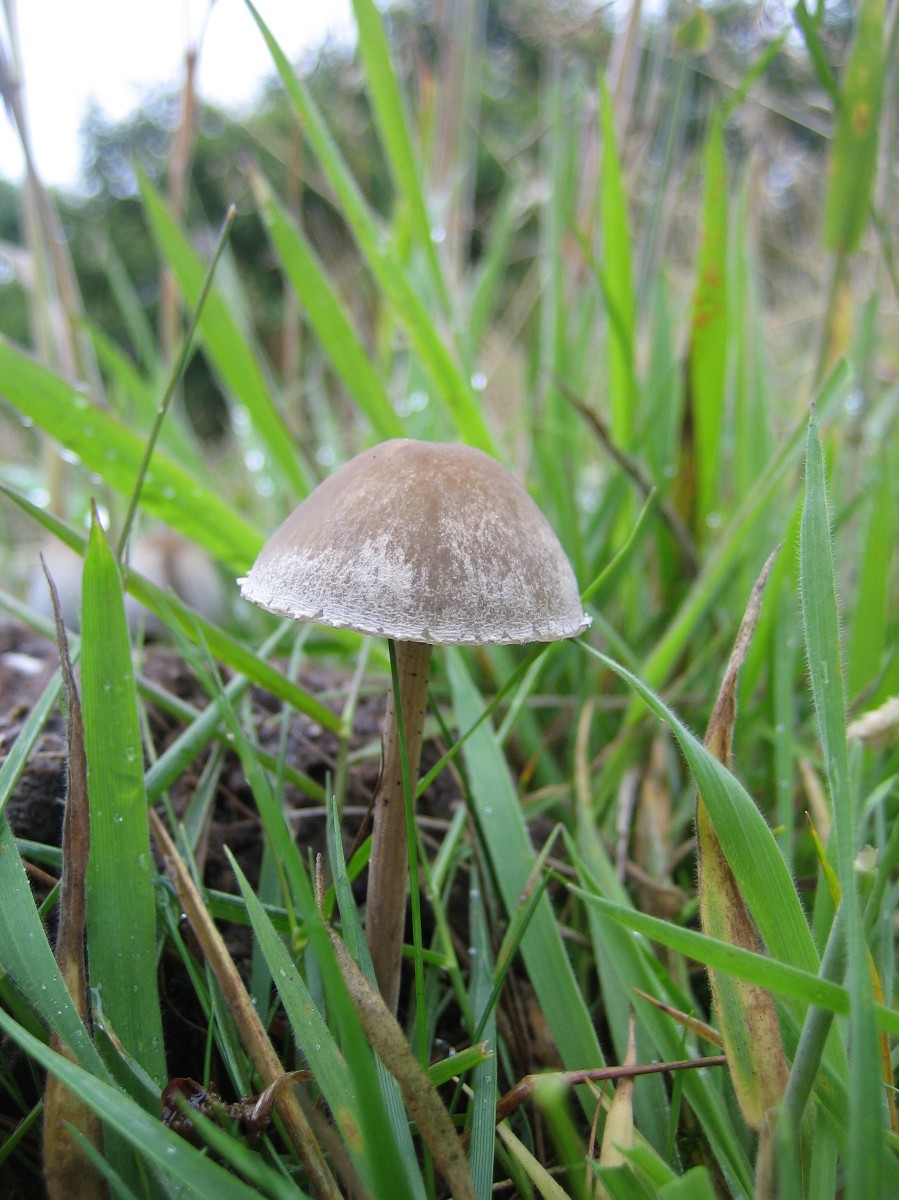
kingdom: Fungi
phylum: Basidiomycota
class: Agaricomycetes
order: Agaricales
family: Bolbitiaceae
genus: Panaeolus
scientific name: Panaeolus papilionaceus
